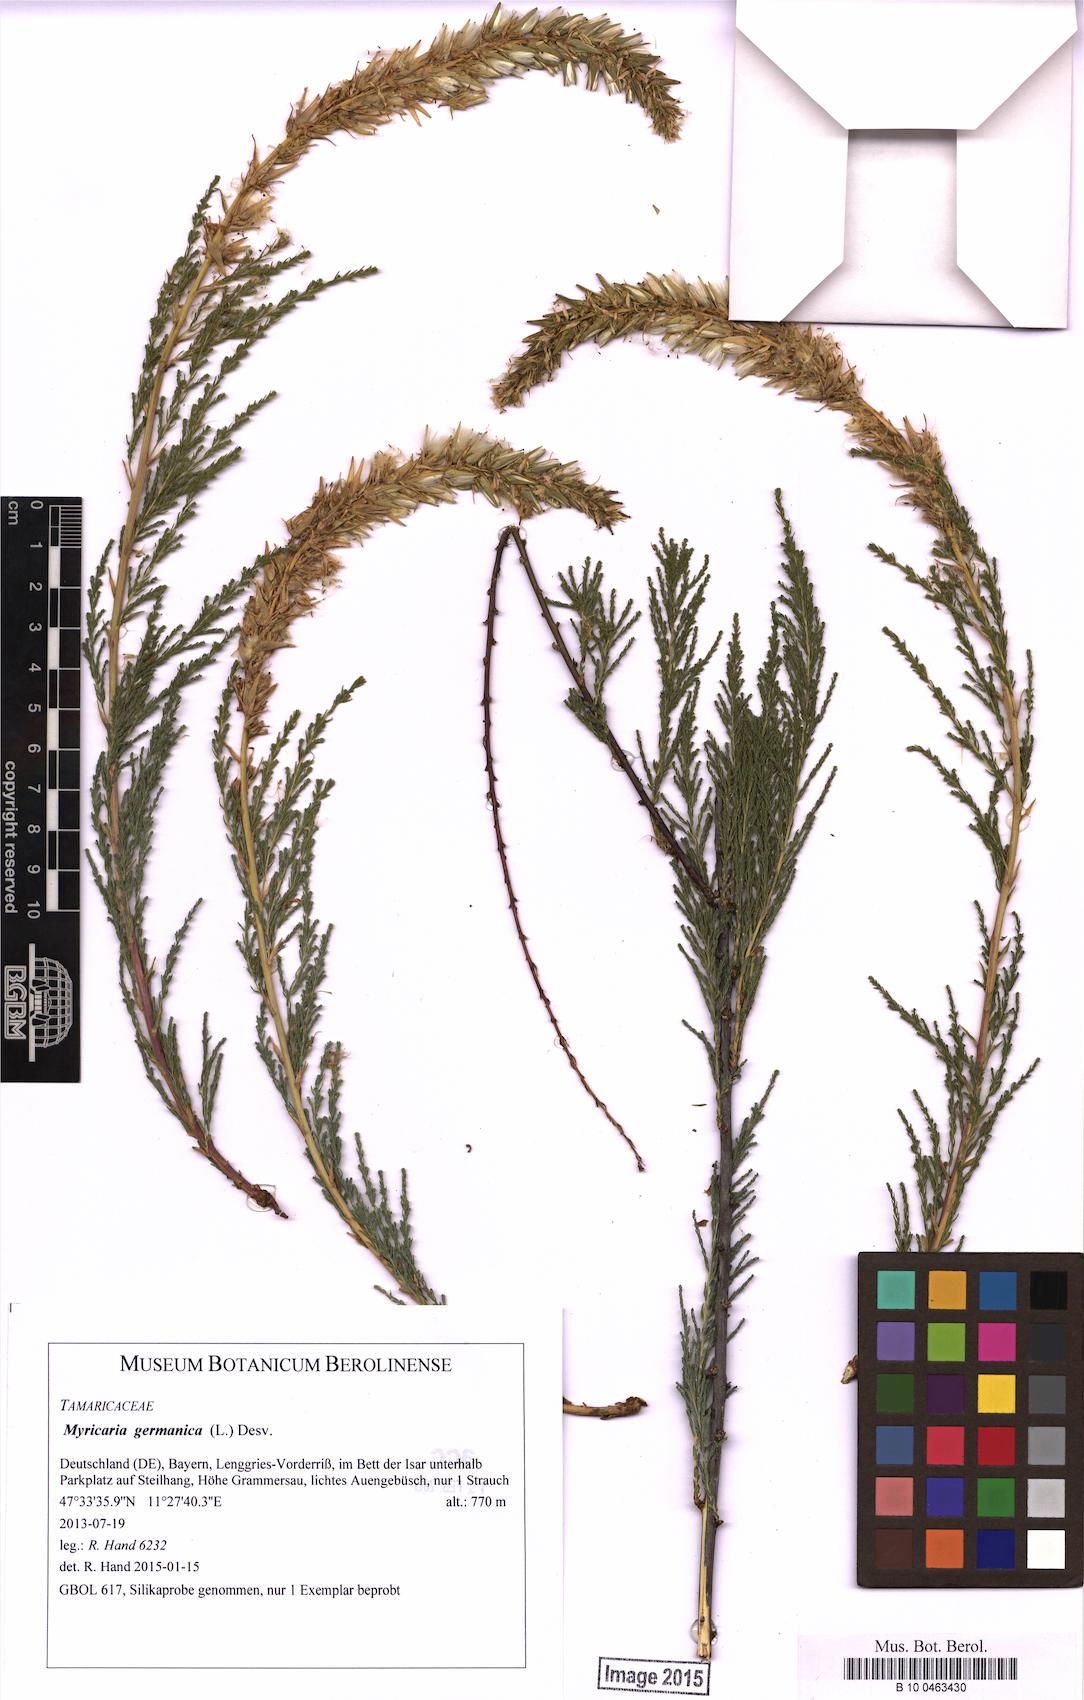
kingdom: Plantae
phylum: Tracheophyta
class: Magnoliopsida
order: Caryophyllales
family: Tamaricaceae
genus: Myricaria
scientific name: Myricaria germanica
